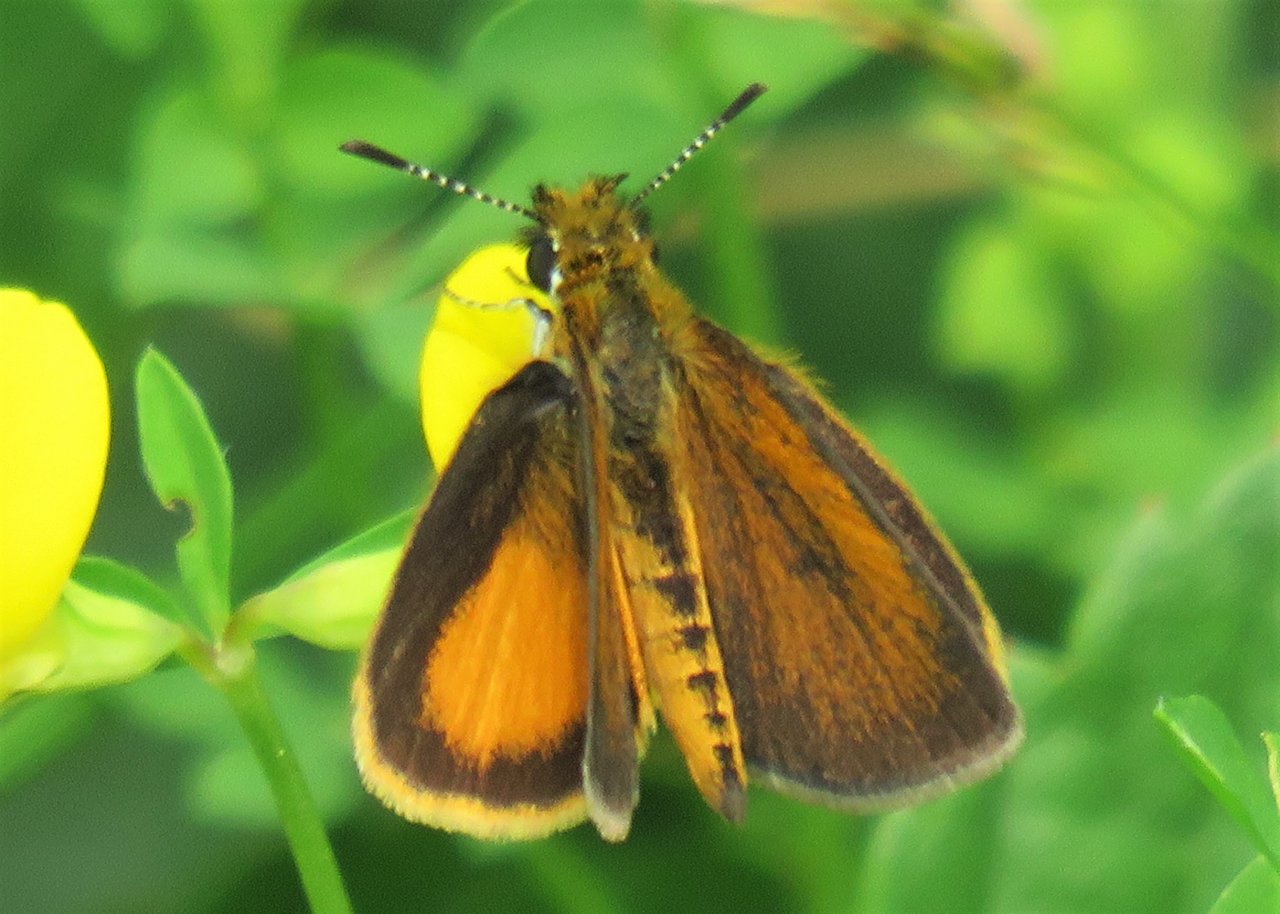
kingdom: Animalia
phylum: Arthropoda
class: Insecta
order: Lepidoptera
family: Hesperiidae
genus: Ancyloxypha
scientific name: Ancyloxypha numitor
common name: Least Skipper
